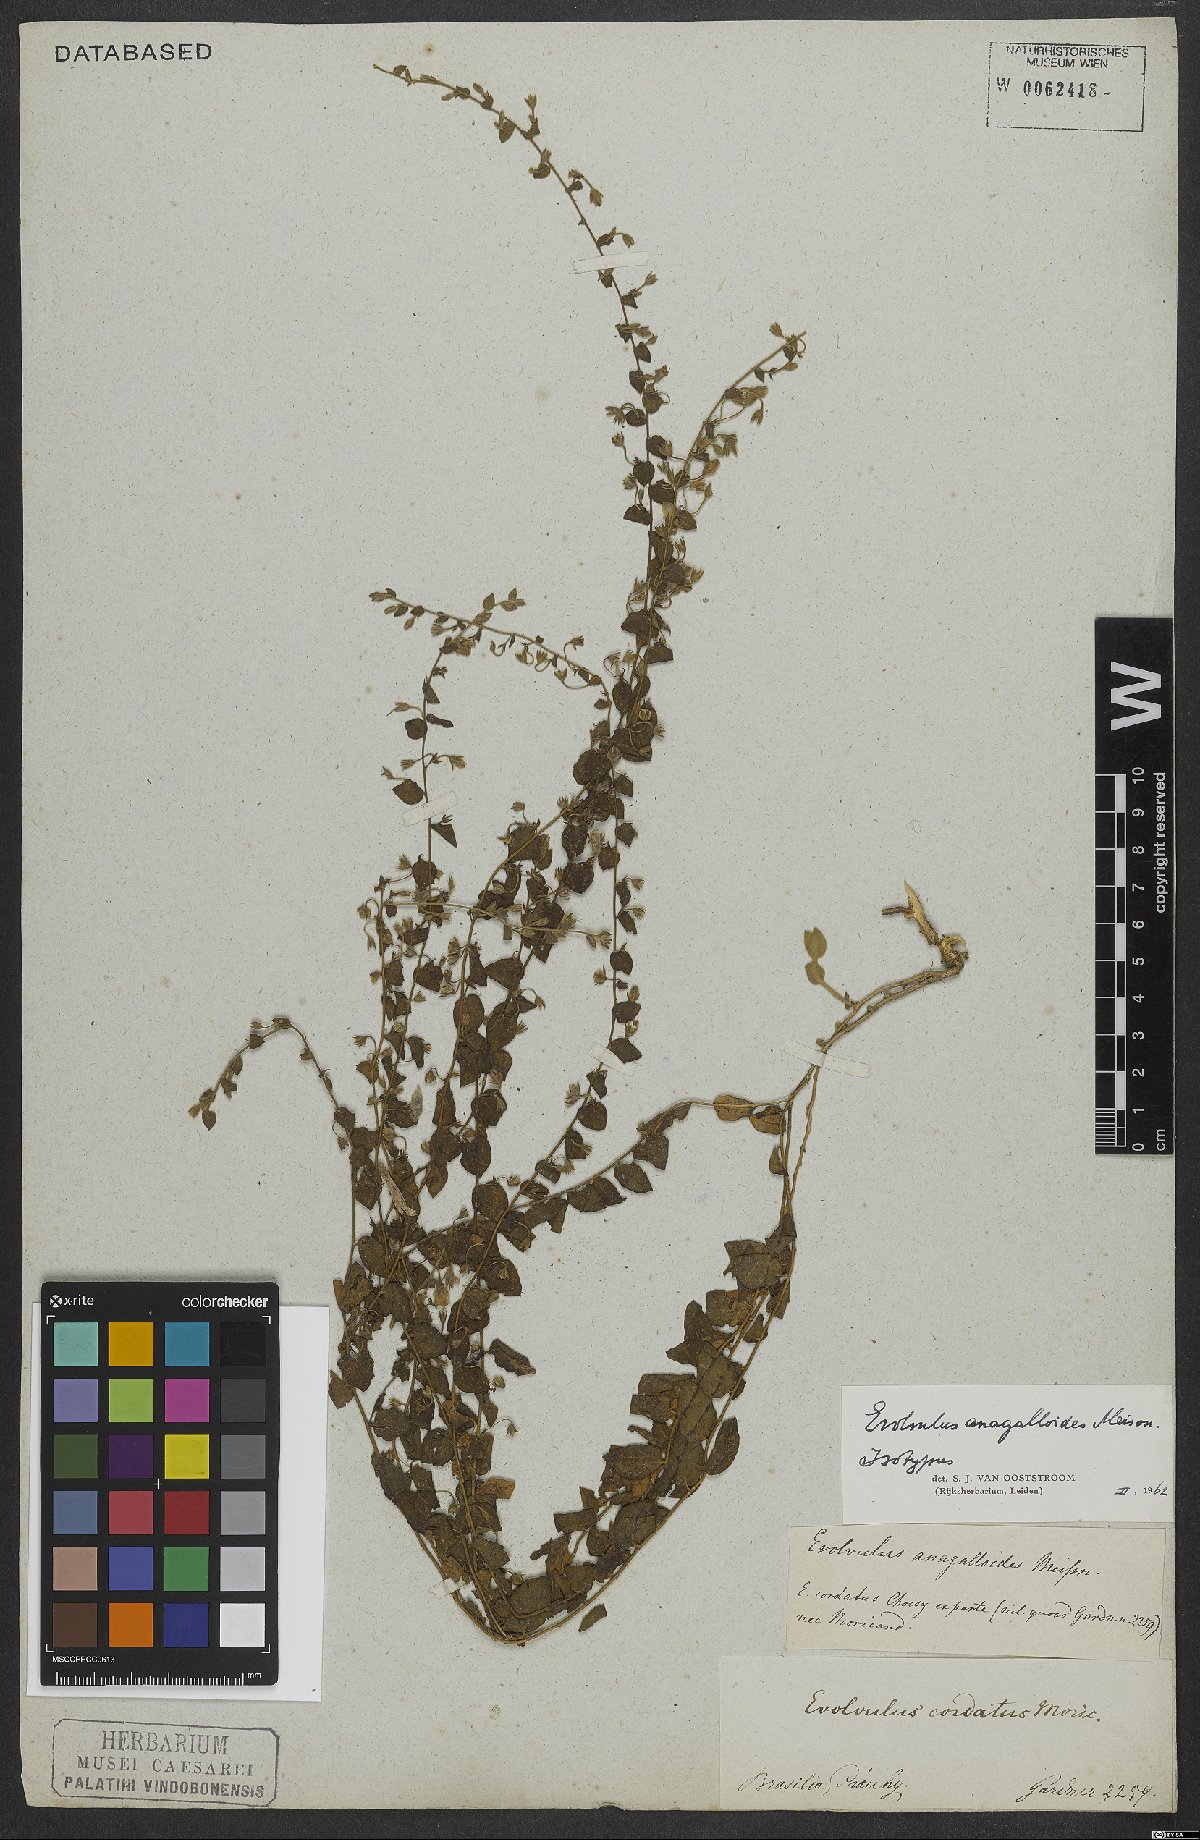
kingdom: Plantae
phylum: Tracheophyta
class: Magnoliopsida
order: Solanales
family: Convolvulaceae
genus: Evolvulus
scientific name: Evolvulus anagalloides
